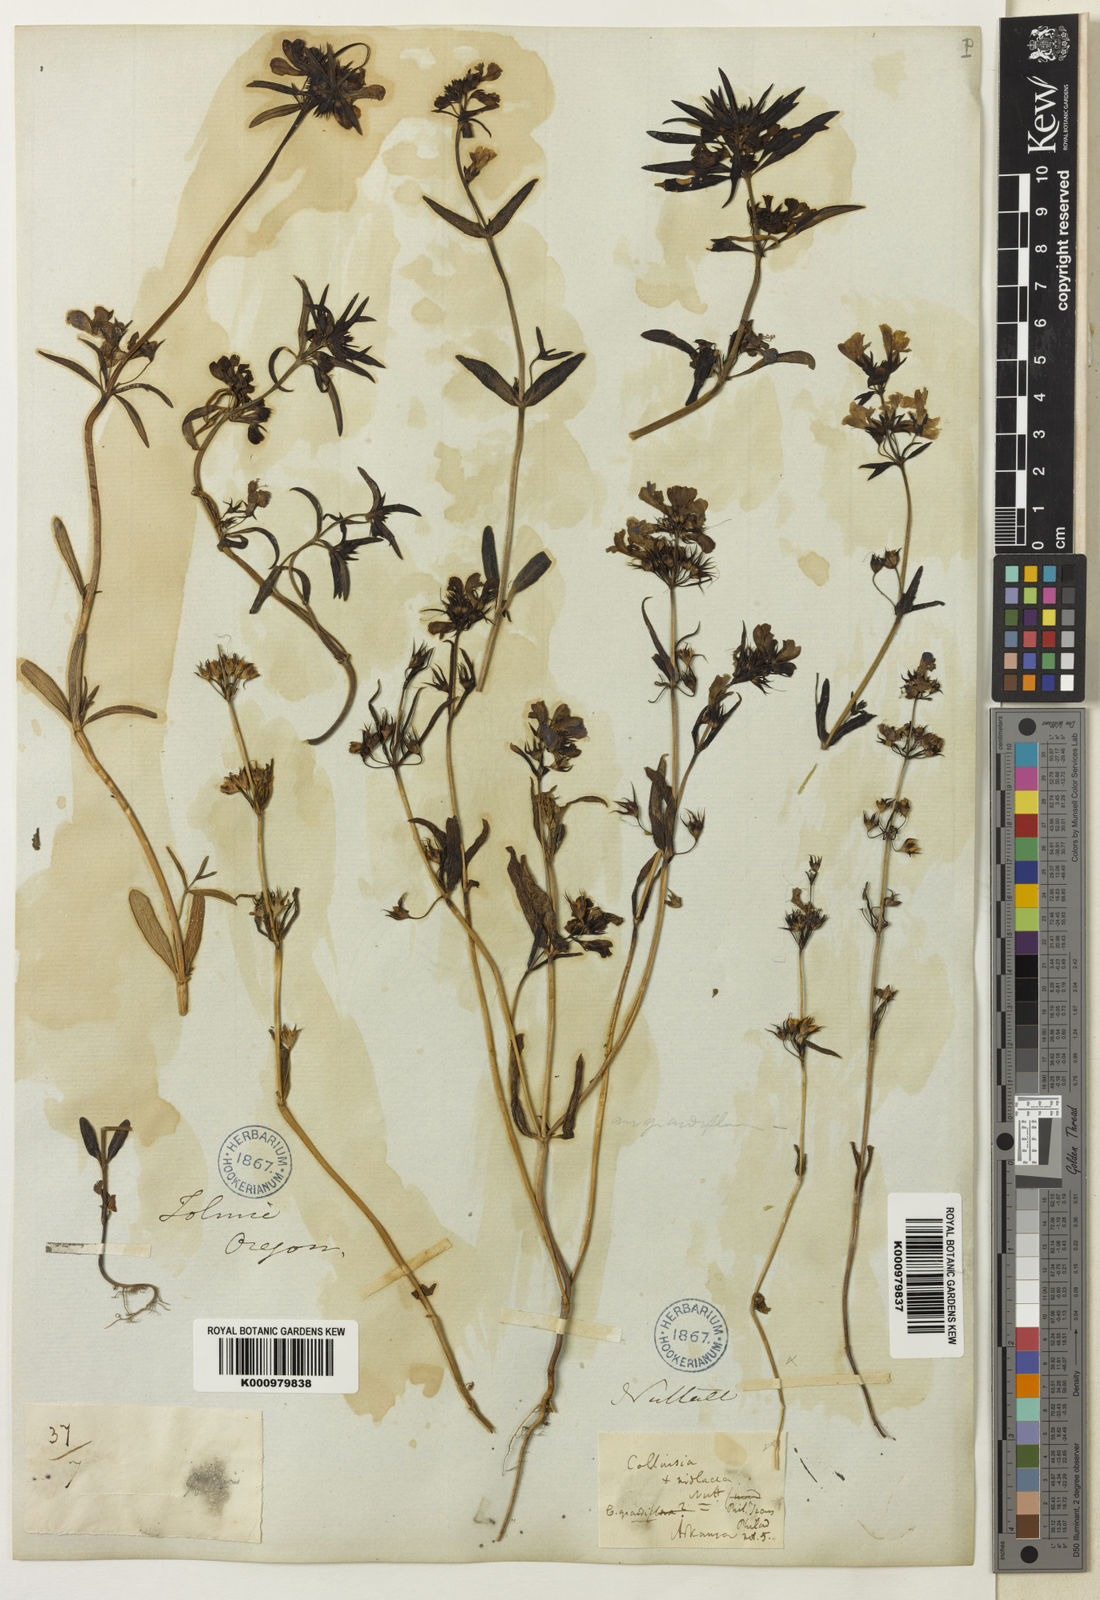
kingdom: Plantae
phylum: Tracheophyta
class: Magnoliopsida
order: Lamiales
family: Plantaginaceae
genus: Collinsia
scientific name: Collinsia grandiflora
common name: Large-flower blue-eyed-mary
